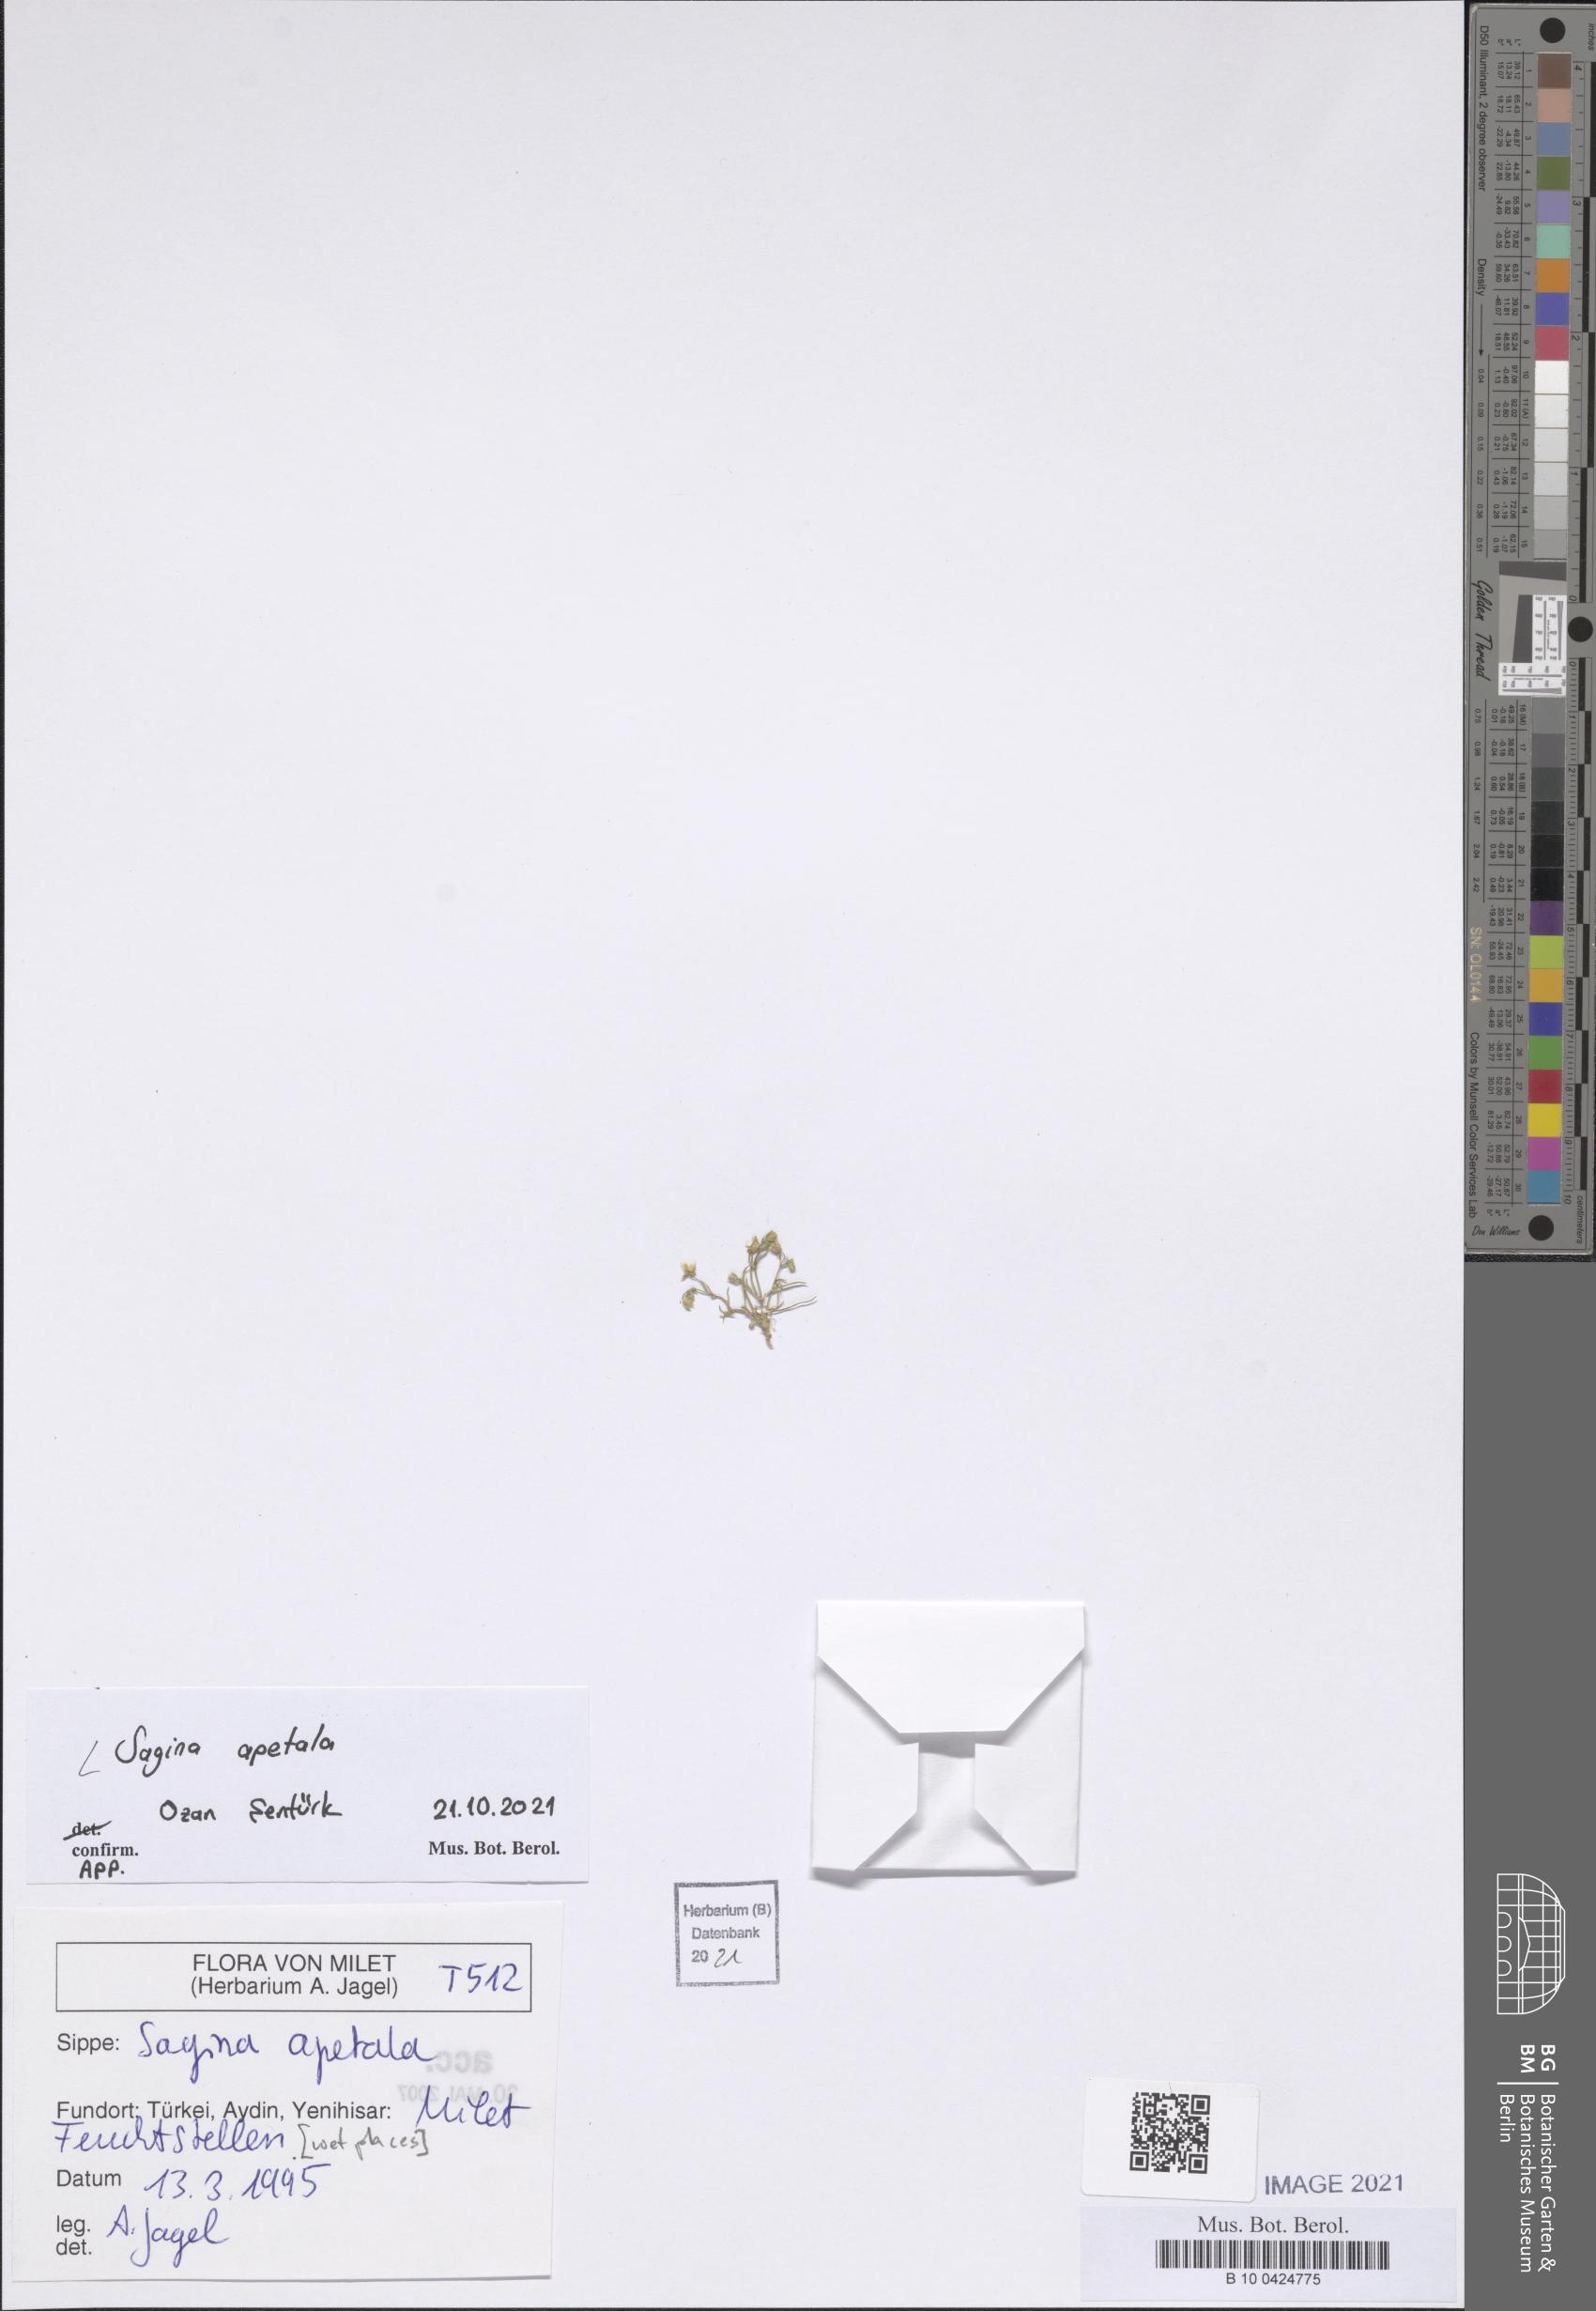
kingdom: Plantae
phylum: Tracheophyta
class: Magnoliopsida
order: Caryophyllales
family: Caryophyllaceae
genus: Sagina
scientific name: Sagina apetala
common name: Annual pearlwort
